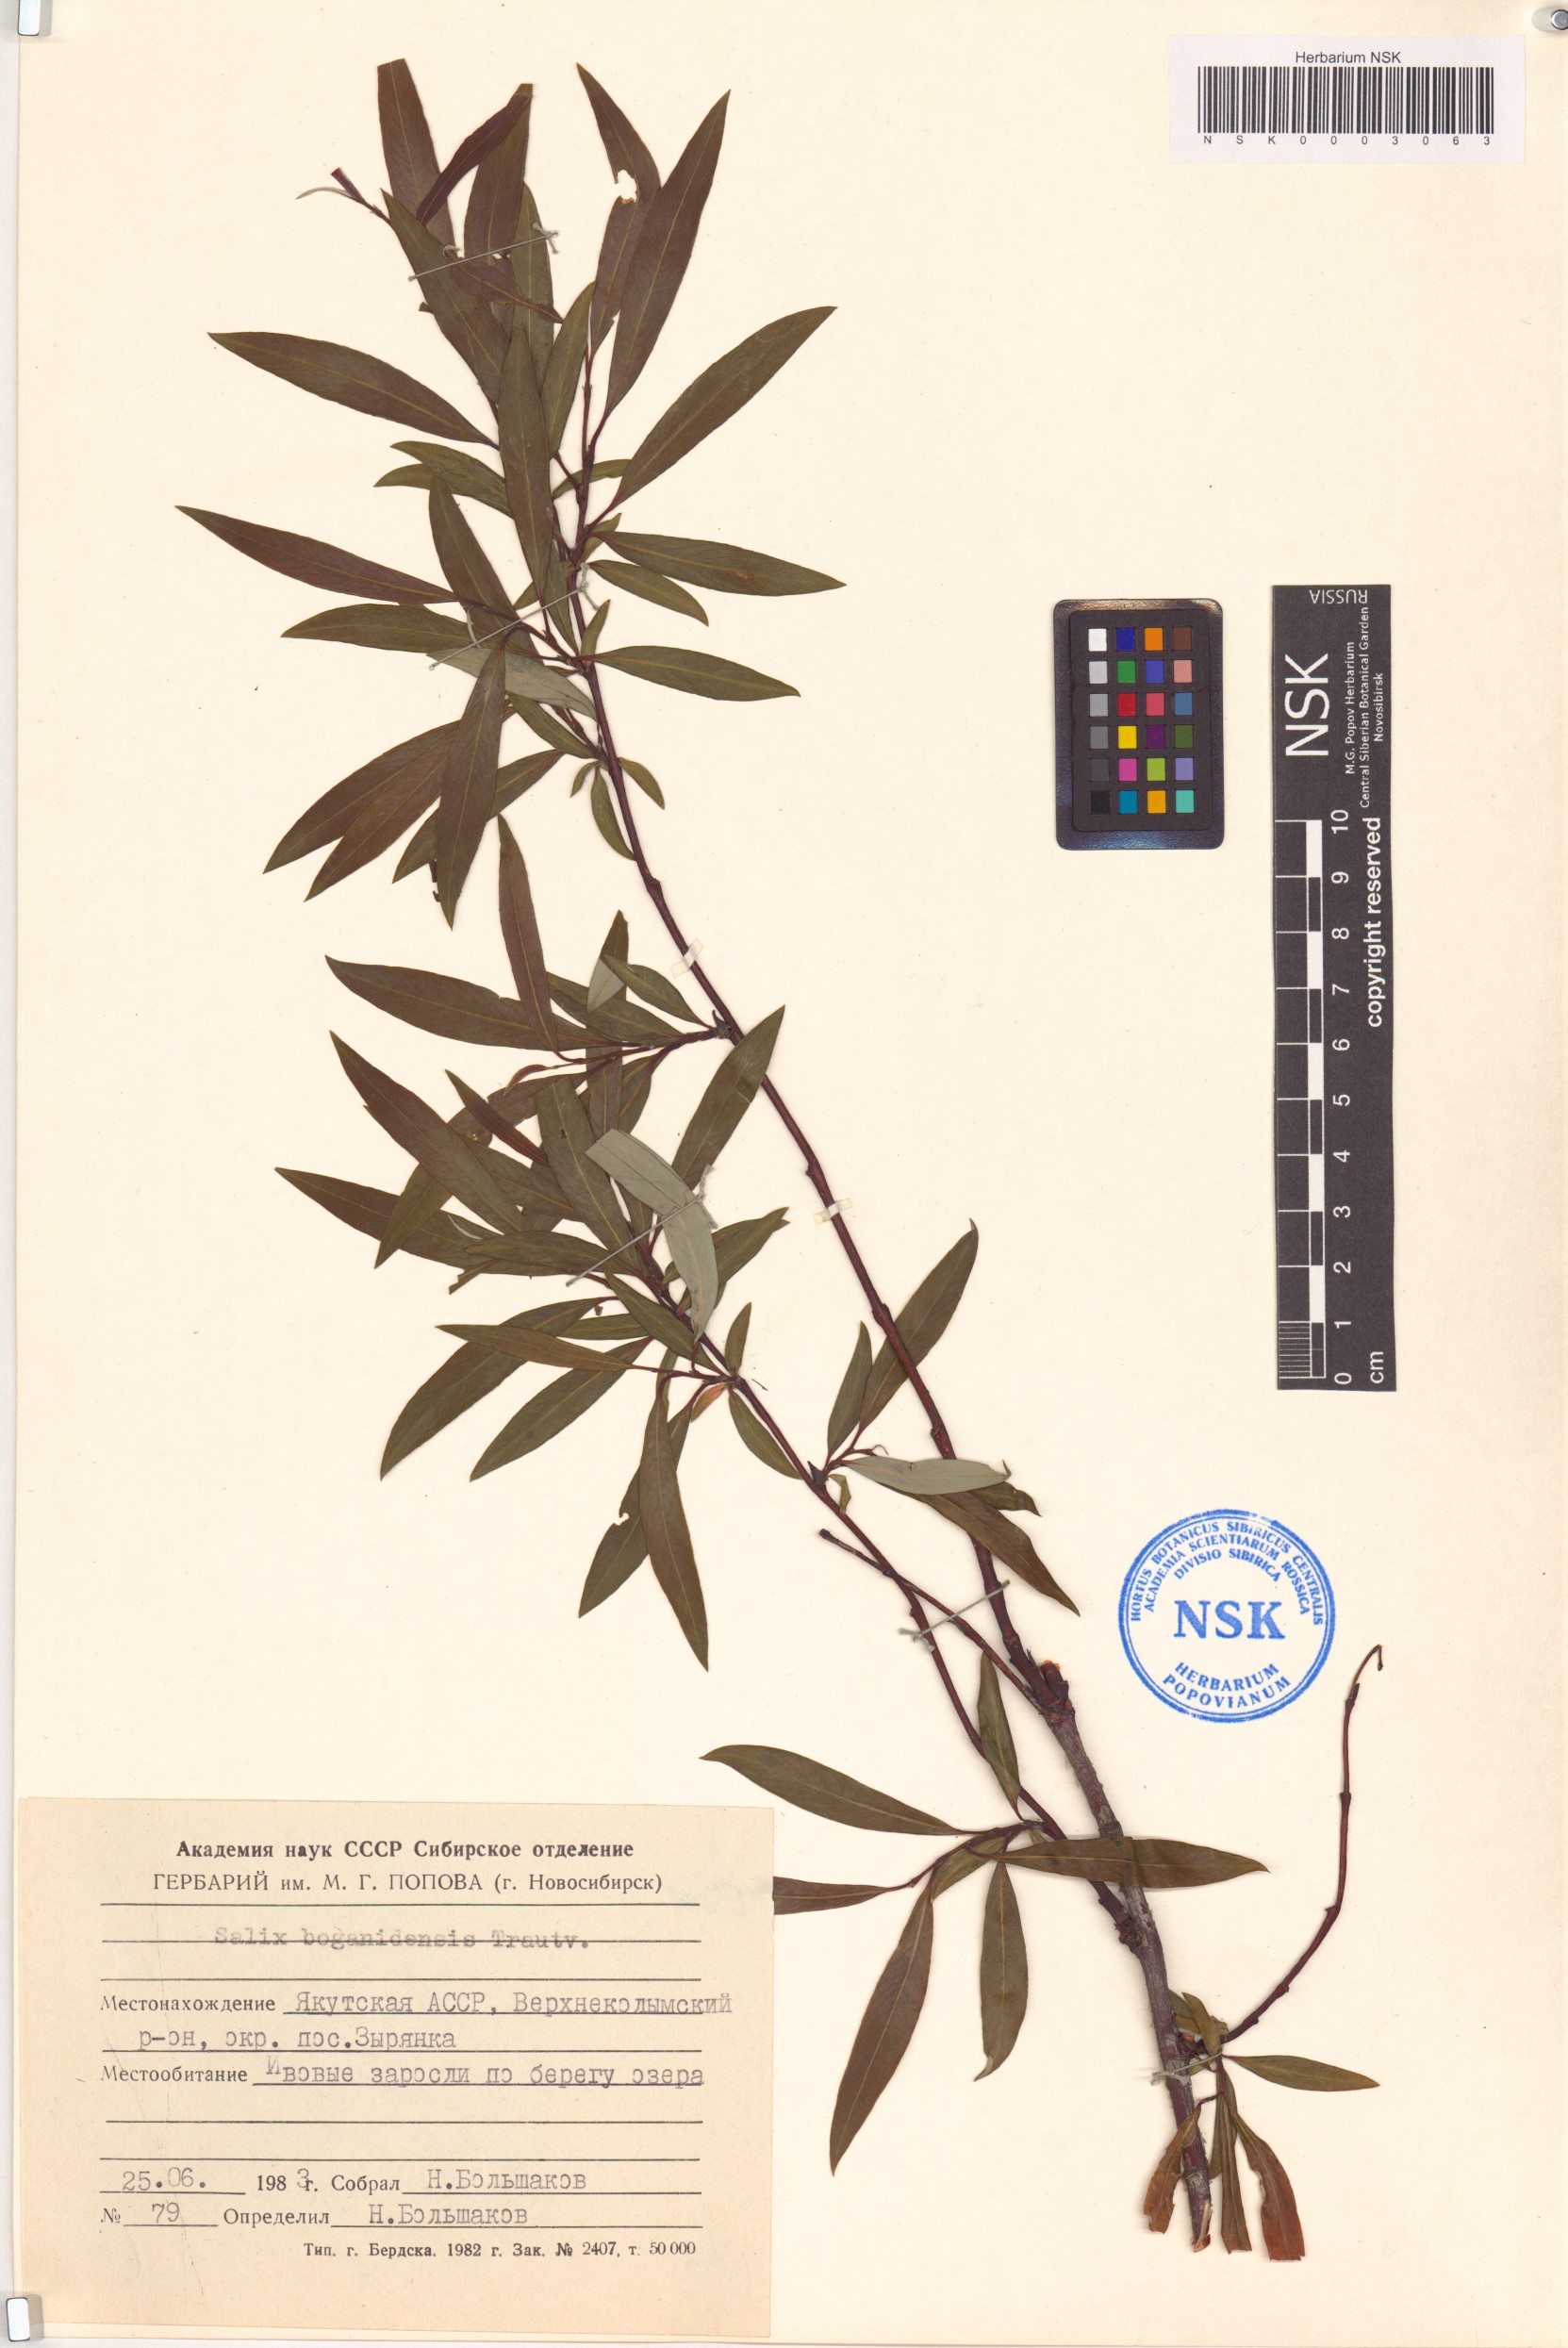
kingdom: Plantae
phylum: Tracheophyta
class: Magnoliopsida
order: Malpighiales
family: Salicaceae
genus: Salix
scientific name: Salix boganidensis
